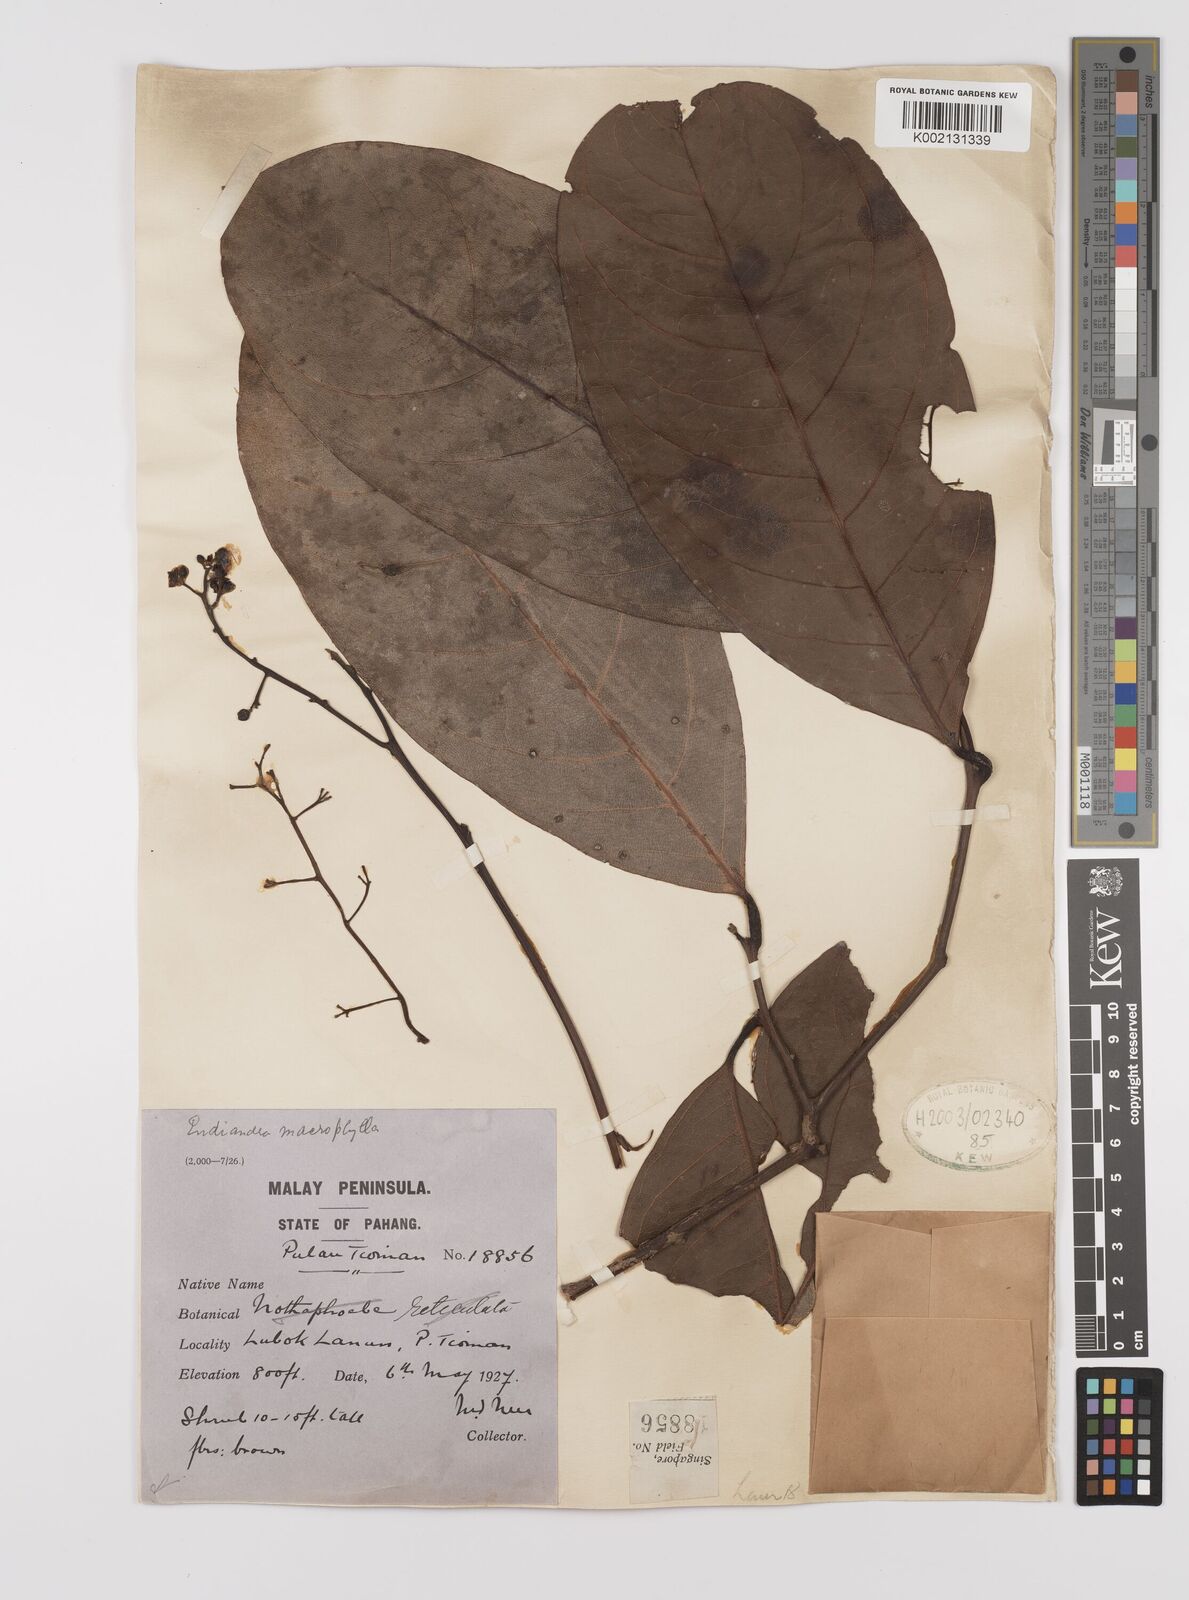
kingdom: Plantae
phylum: Tracheophyta
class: Magnoliopsida
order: Laurales
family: Lauraceae
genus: Endiandra
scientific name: Endiandra macrophylla
